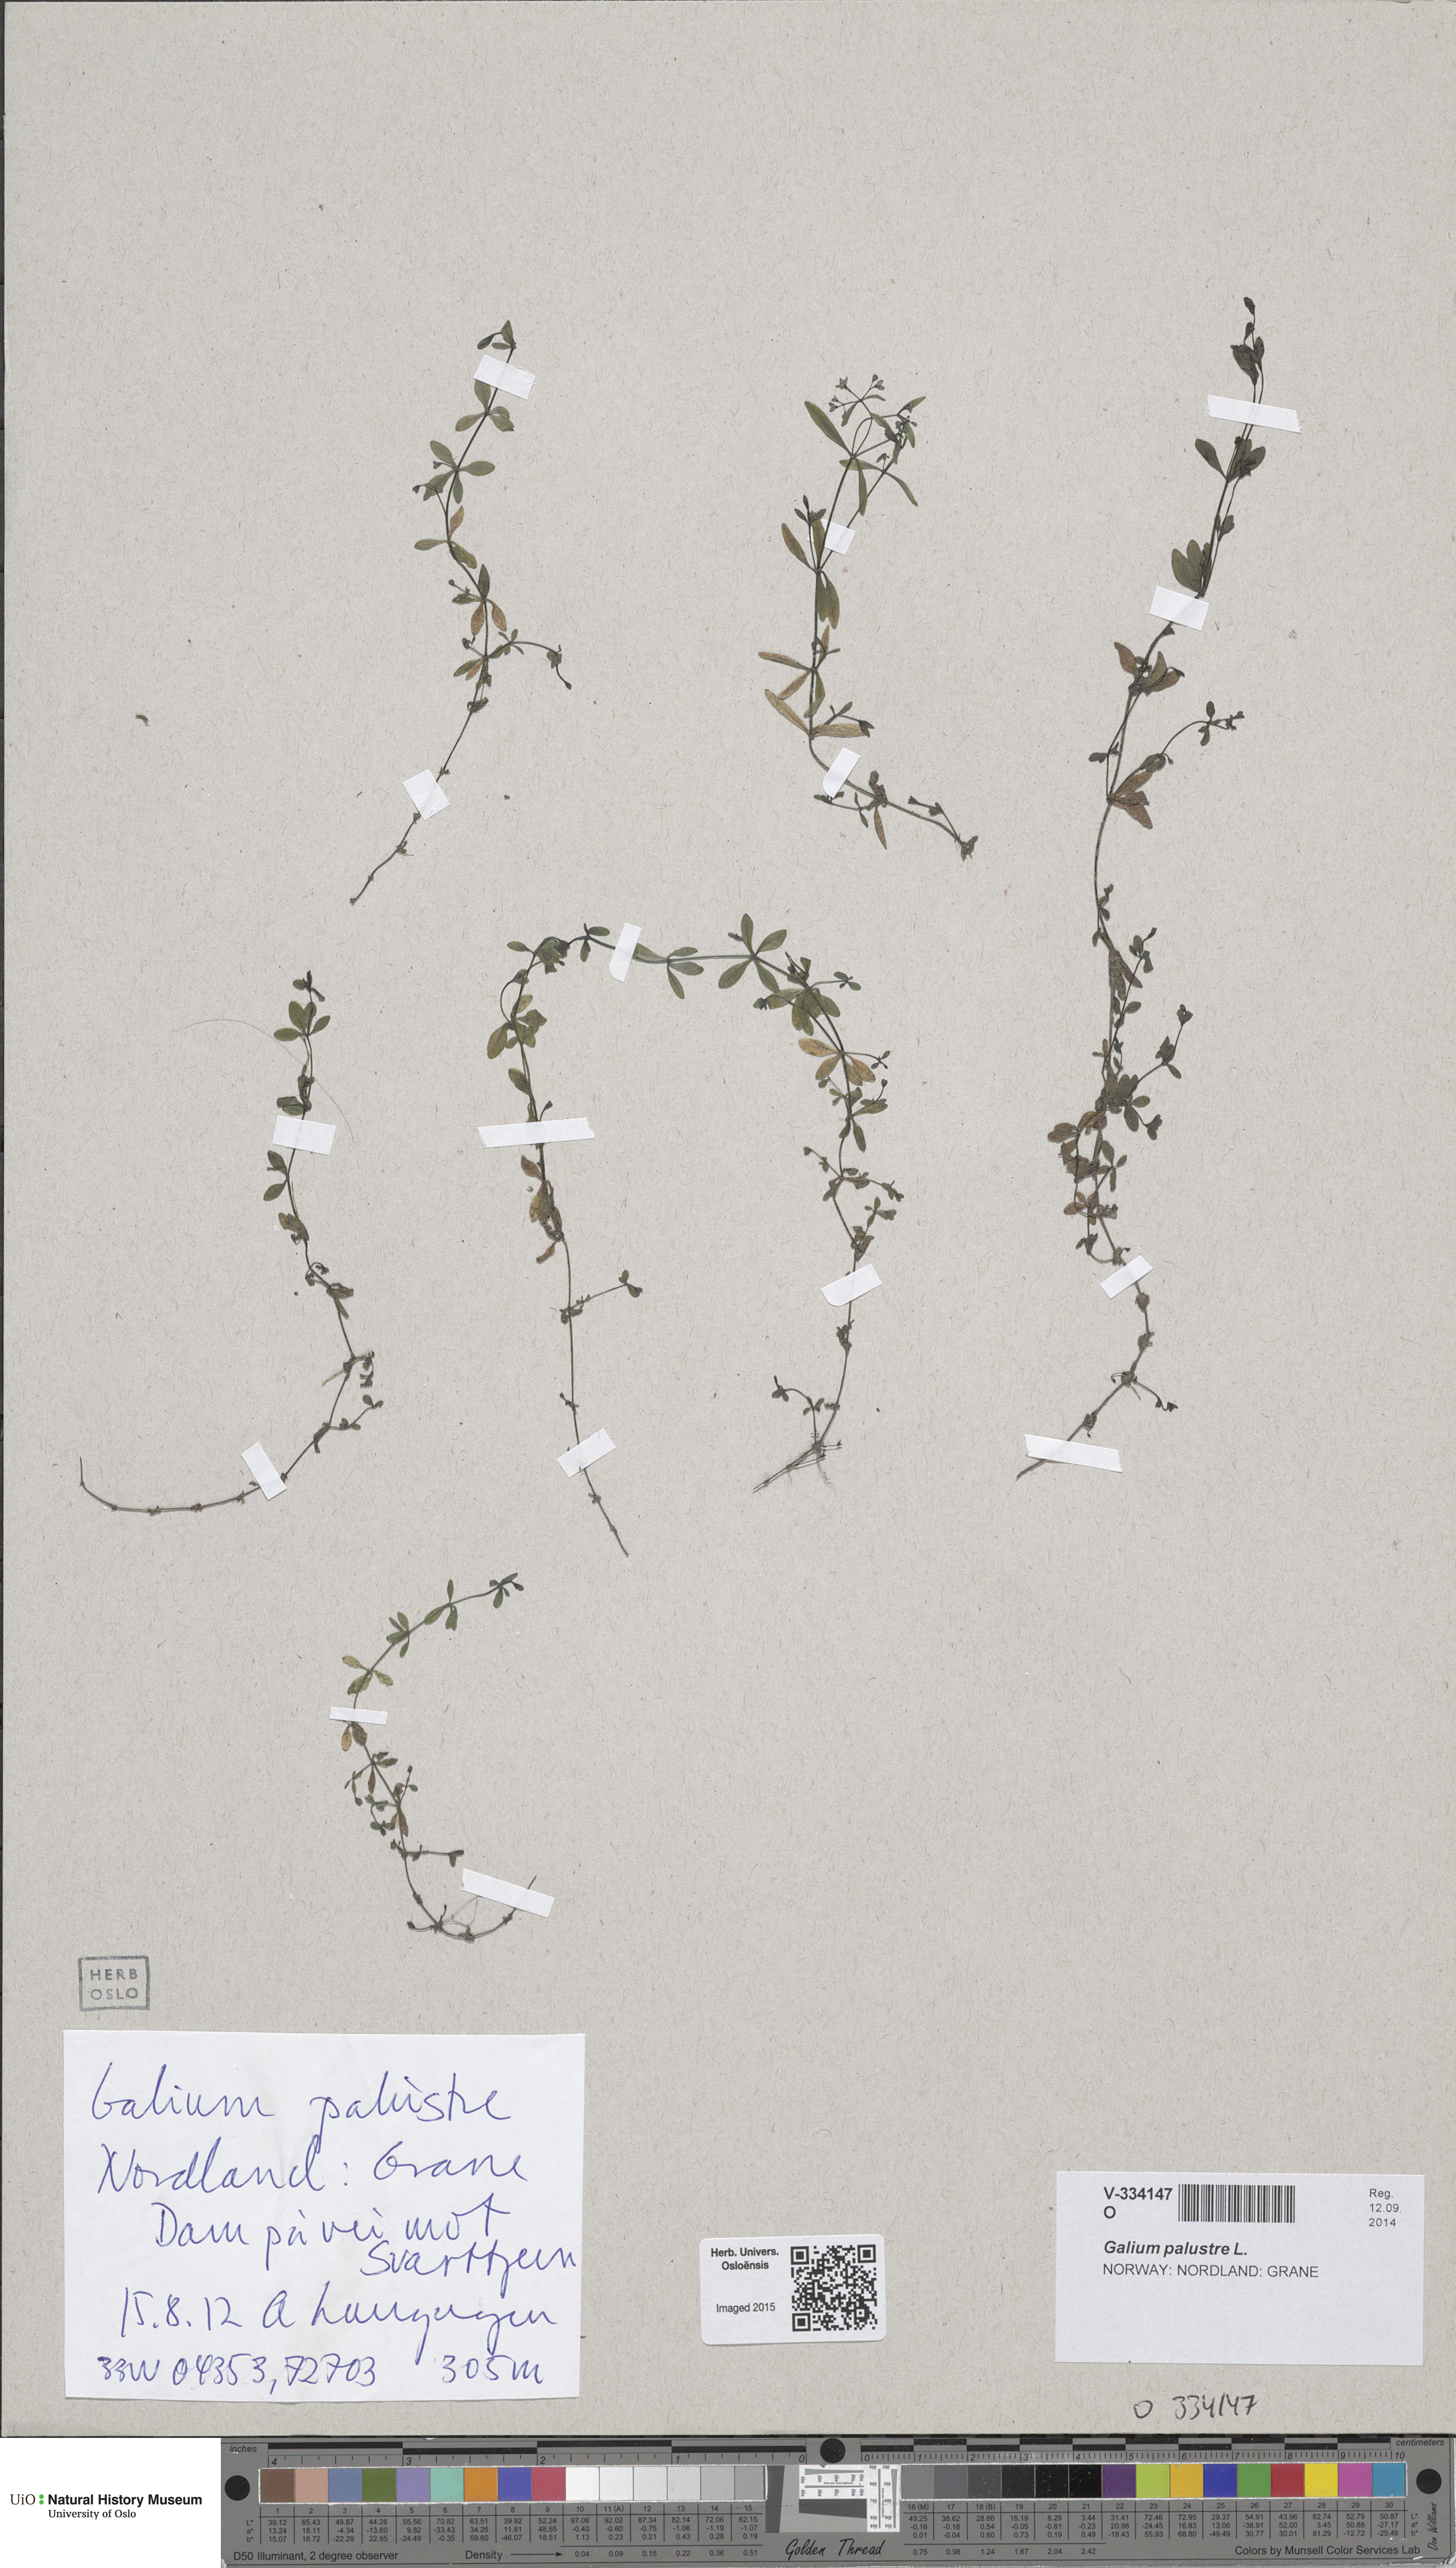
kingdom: Plantae
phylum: Tracheophyta
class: Magnoliopsida
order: Gentianales
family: Rubiaceae
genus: Galium
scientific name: Galium palustre
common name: Common marsh-bedstraw
